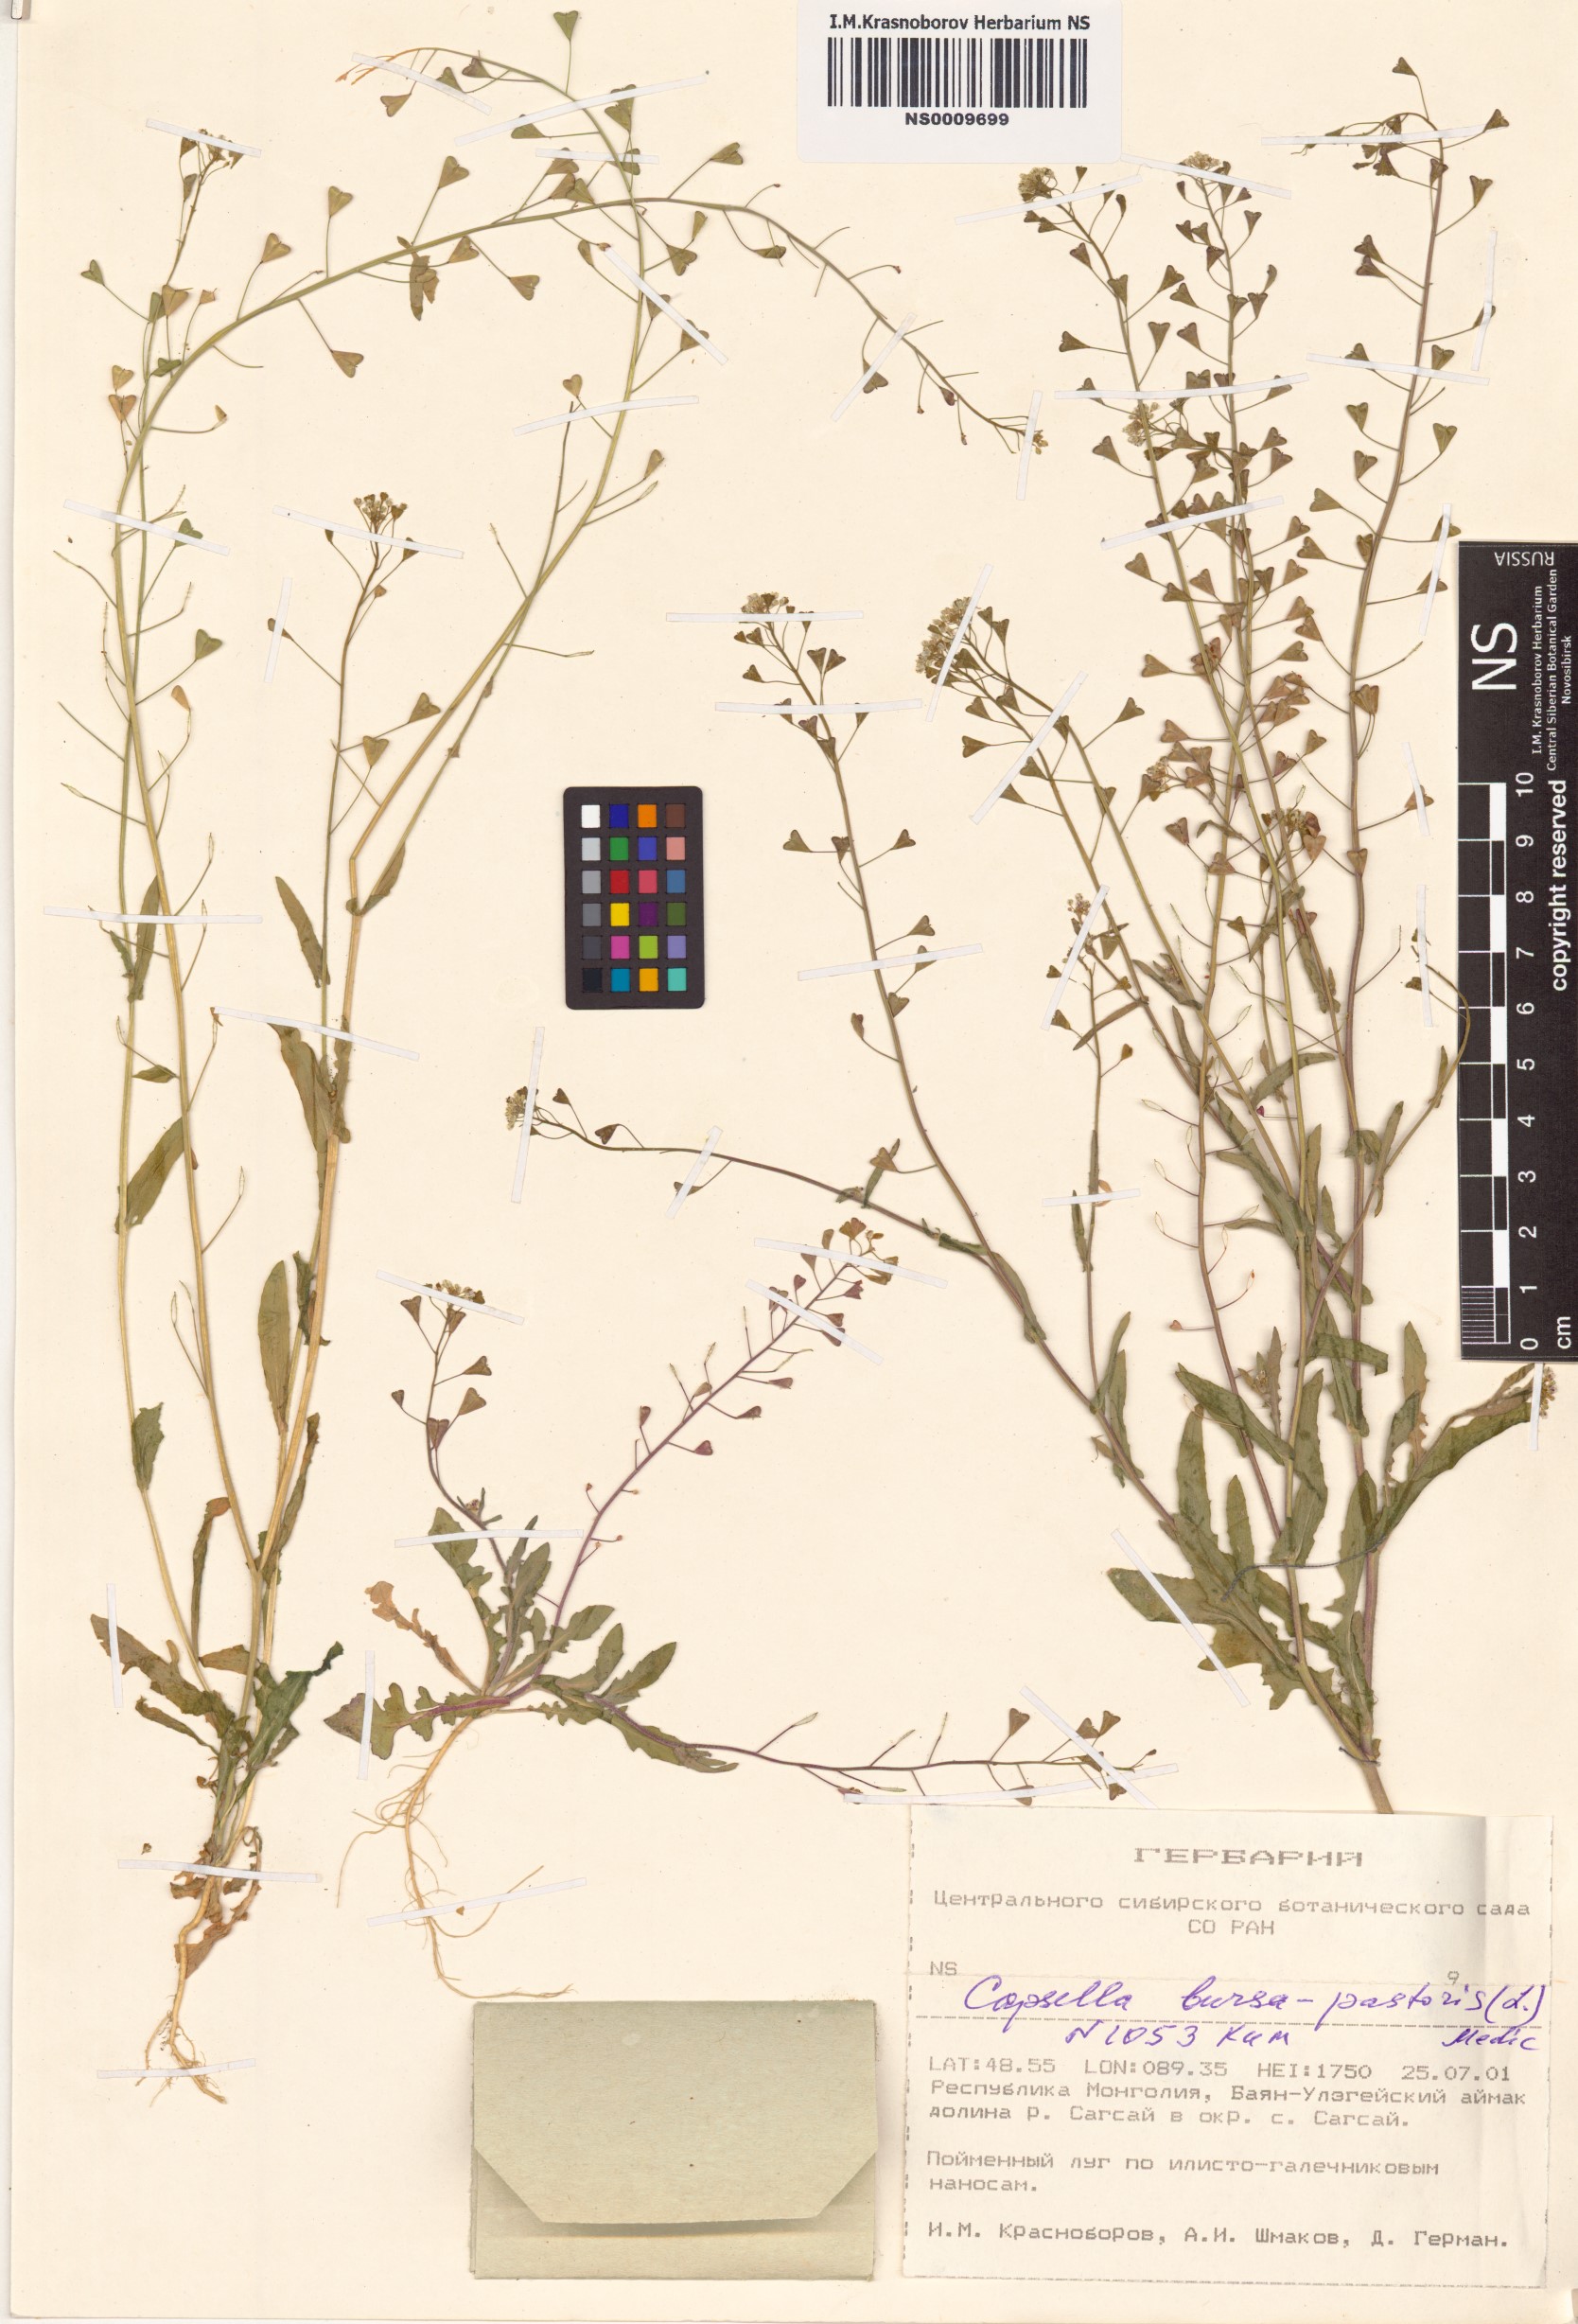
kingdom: Plantae
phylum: Tracheophyta
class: Magnoliopsida
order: Brassicales
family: Brassicaceae
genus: Capsella
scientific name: Capsella bursa-pastoris
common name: Shepherd's purse
